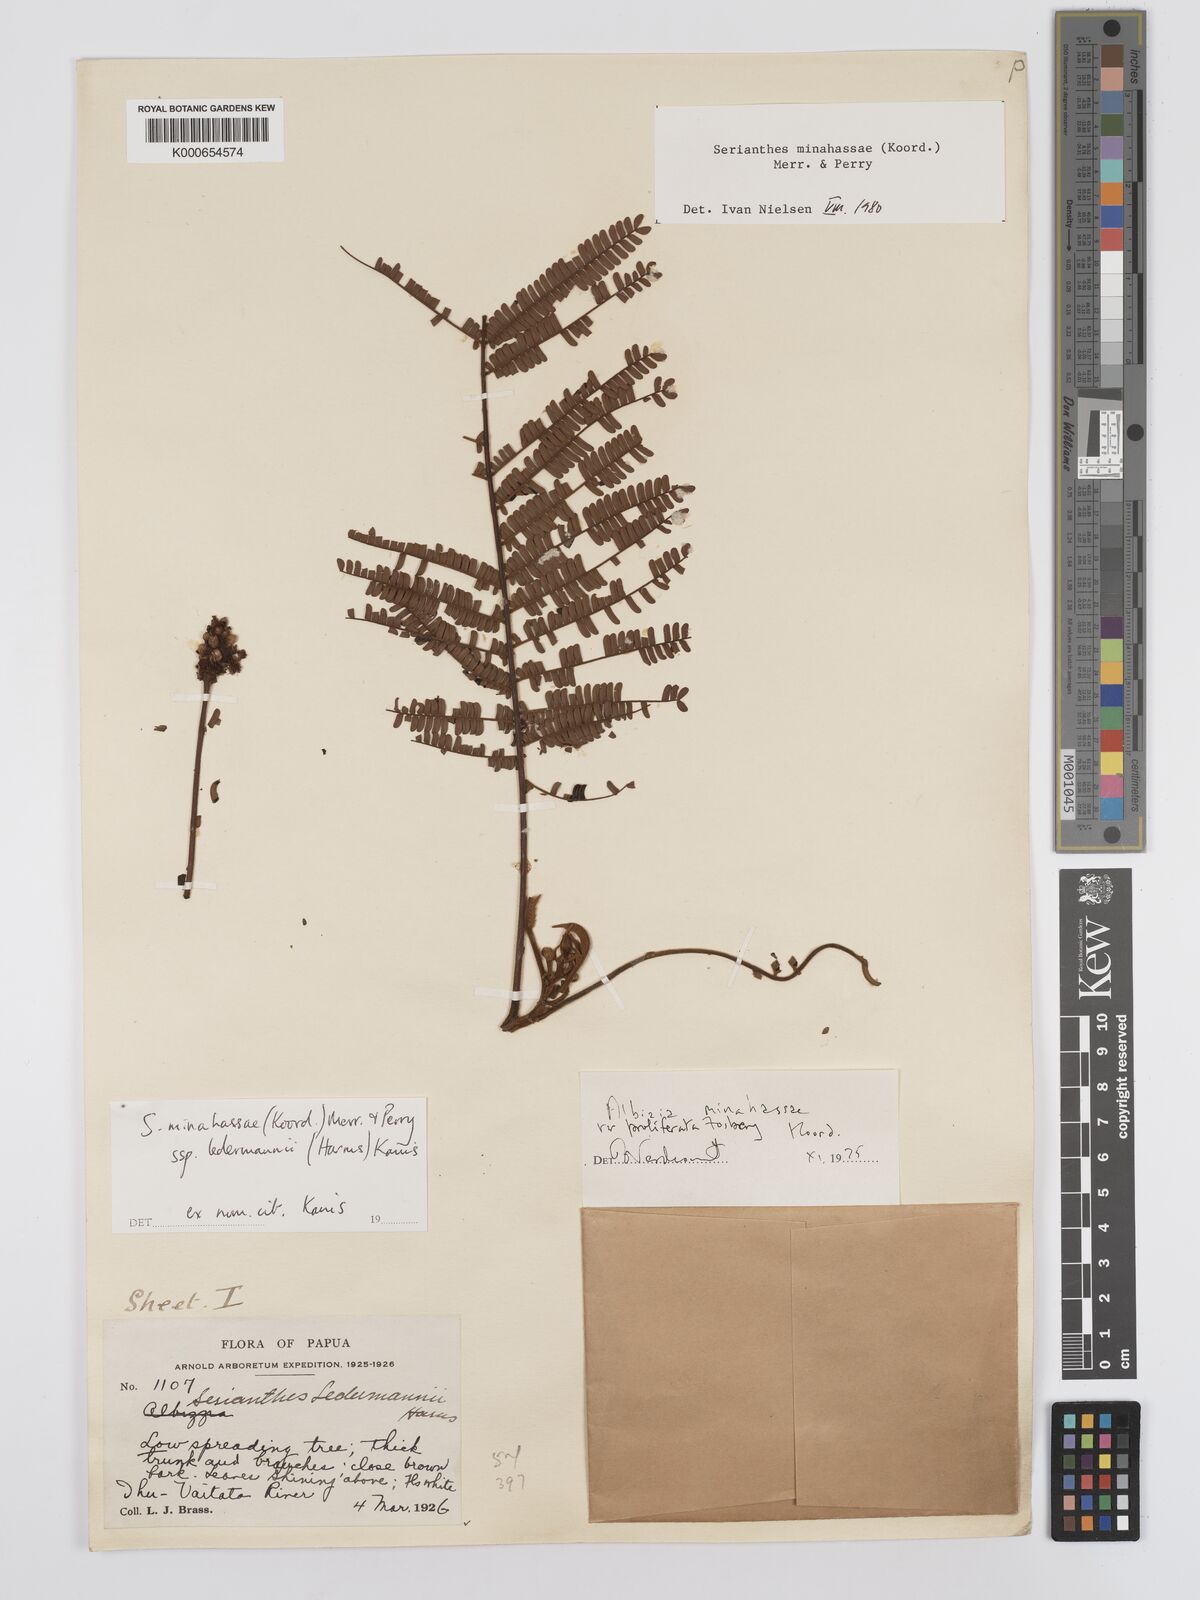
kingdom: Plantae
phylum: Tracheophyta
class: Magnoliopsida
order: Fabales
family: Fabaceae
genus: Serianthes
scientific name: Serianthes minahassae
